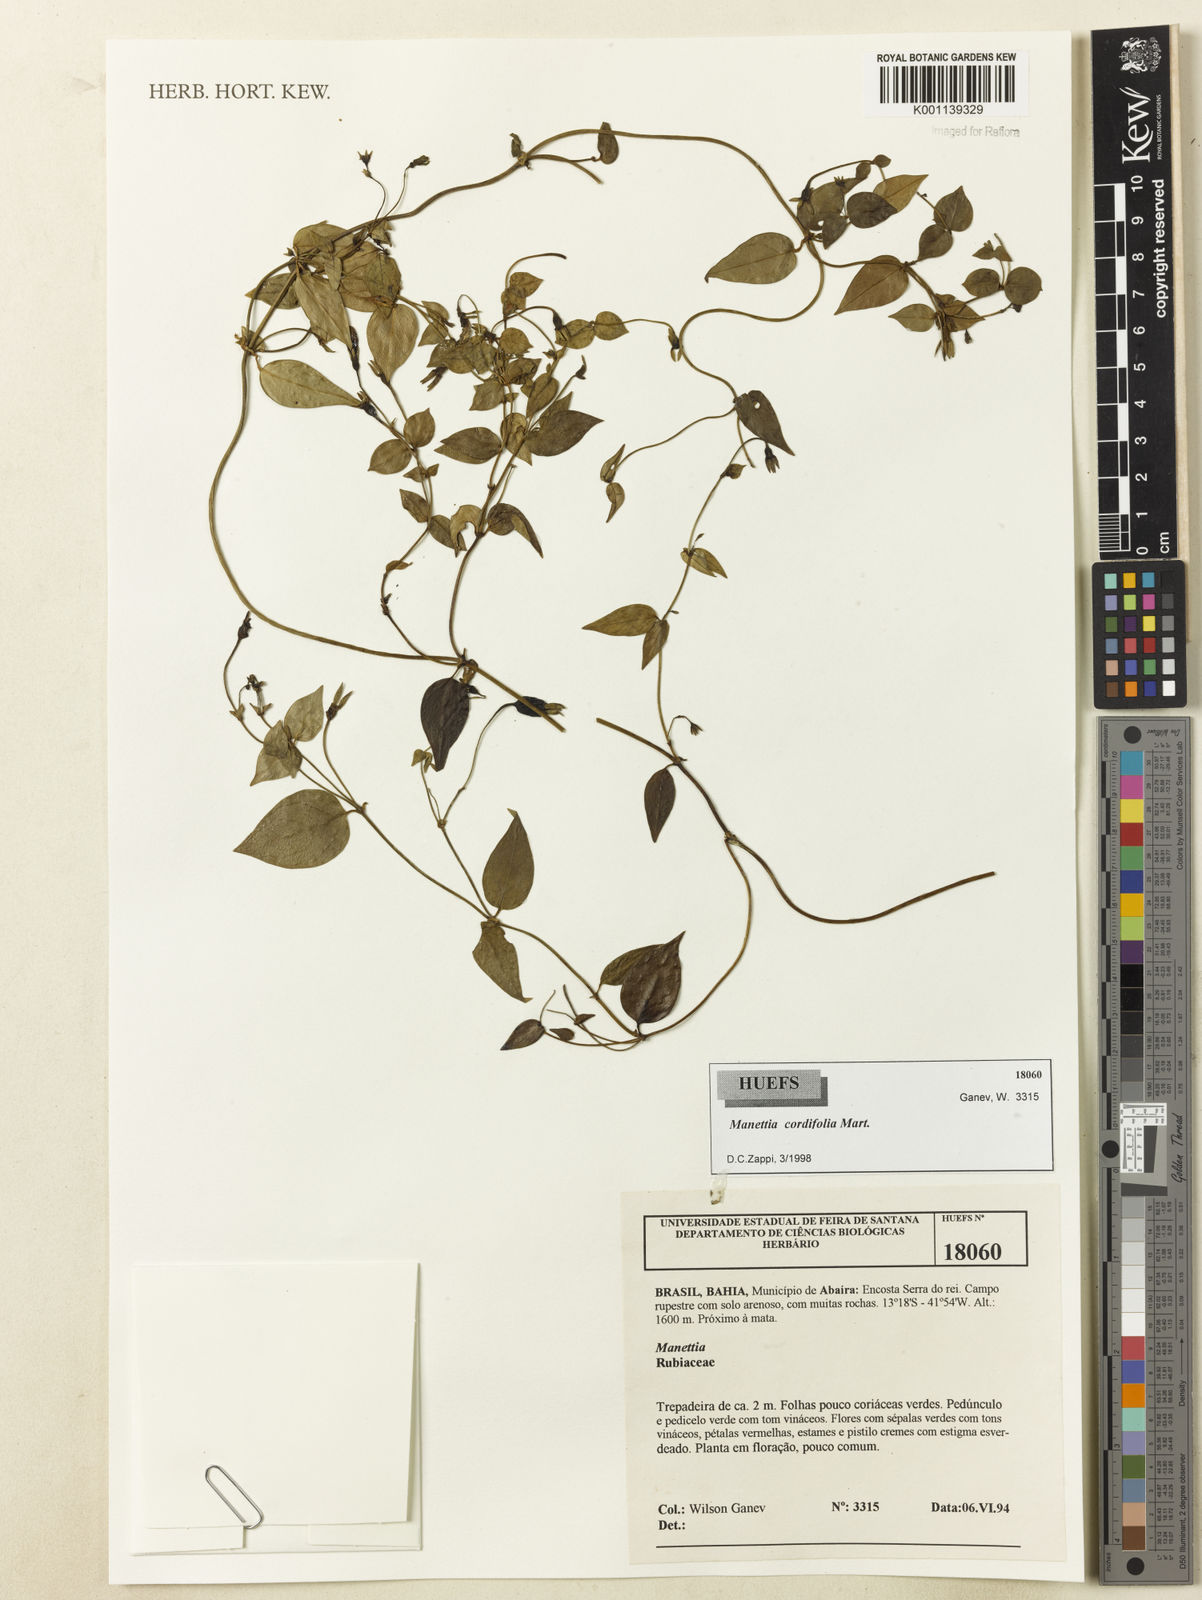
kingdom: Plantae
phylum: Tracheophyta
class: Magnoliopsida
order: Gentianales
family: Rubiaceae
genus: Manettia
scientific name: Manettia
